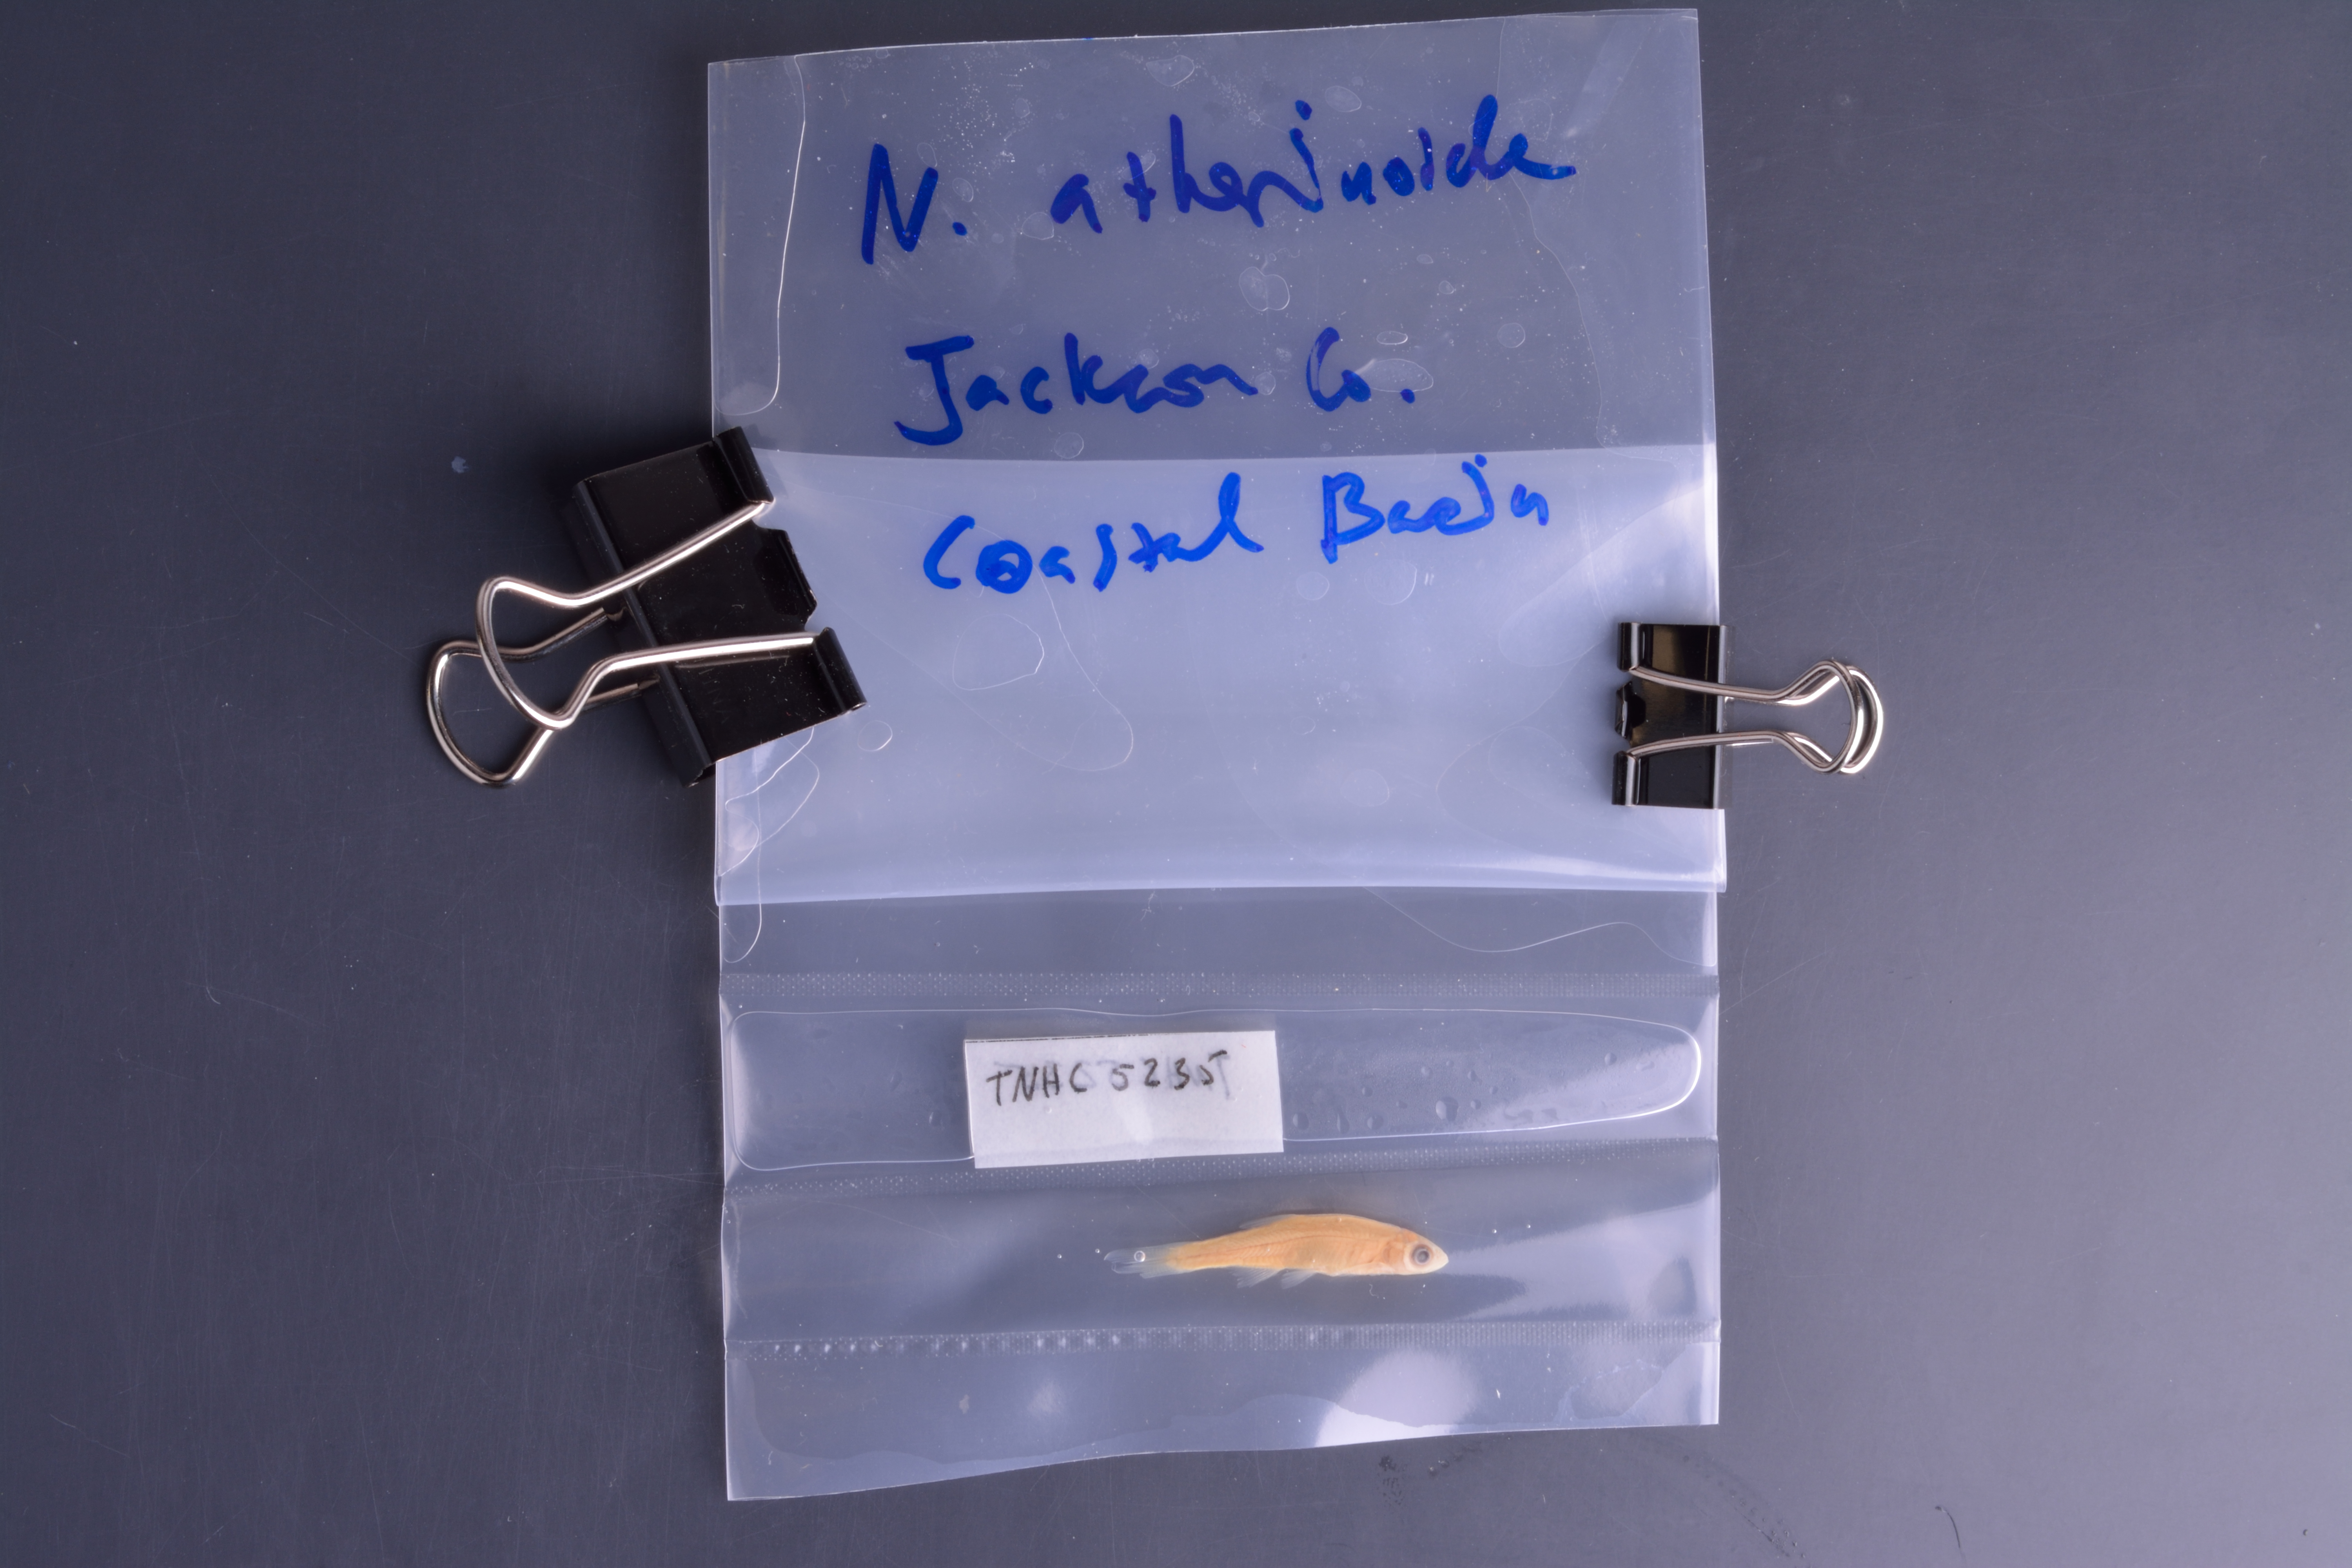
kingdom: Animalia
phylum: Chordata
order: Cypriniformes
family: Cyprinidae
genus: Notropis
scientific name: Notropis atherinoides
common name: Emerald shiner
